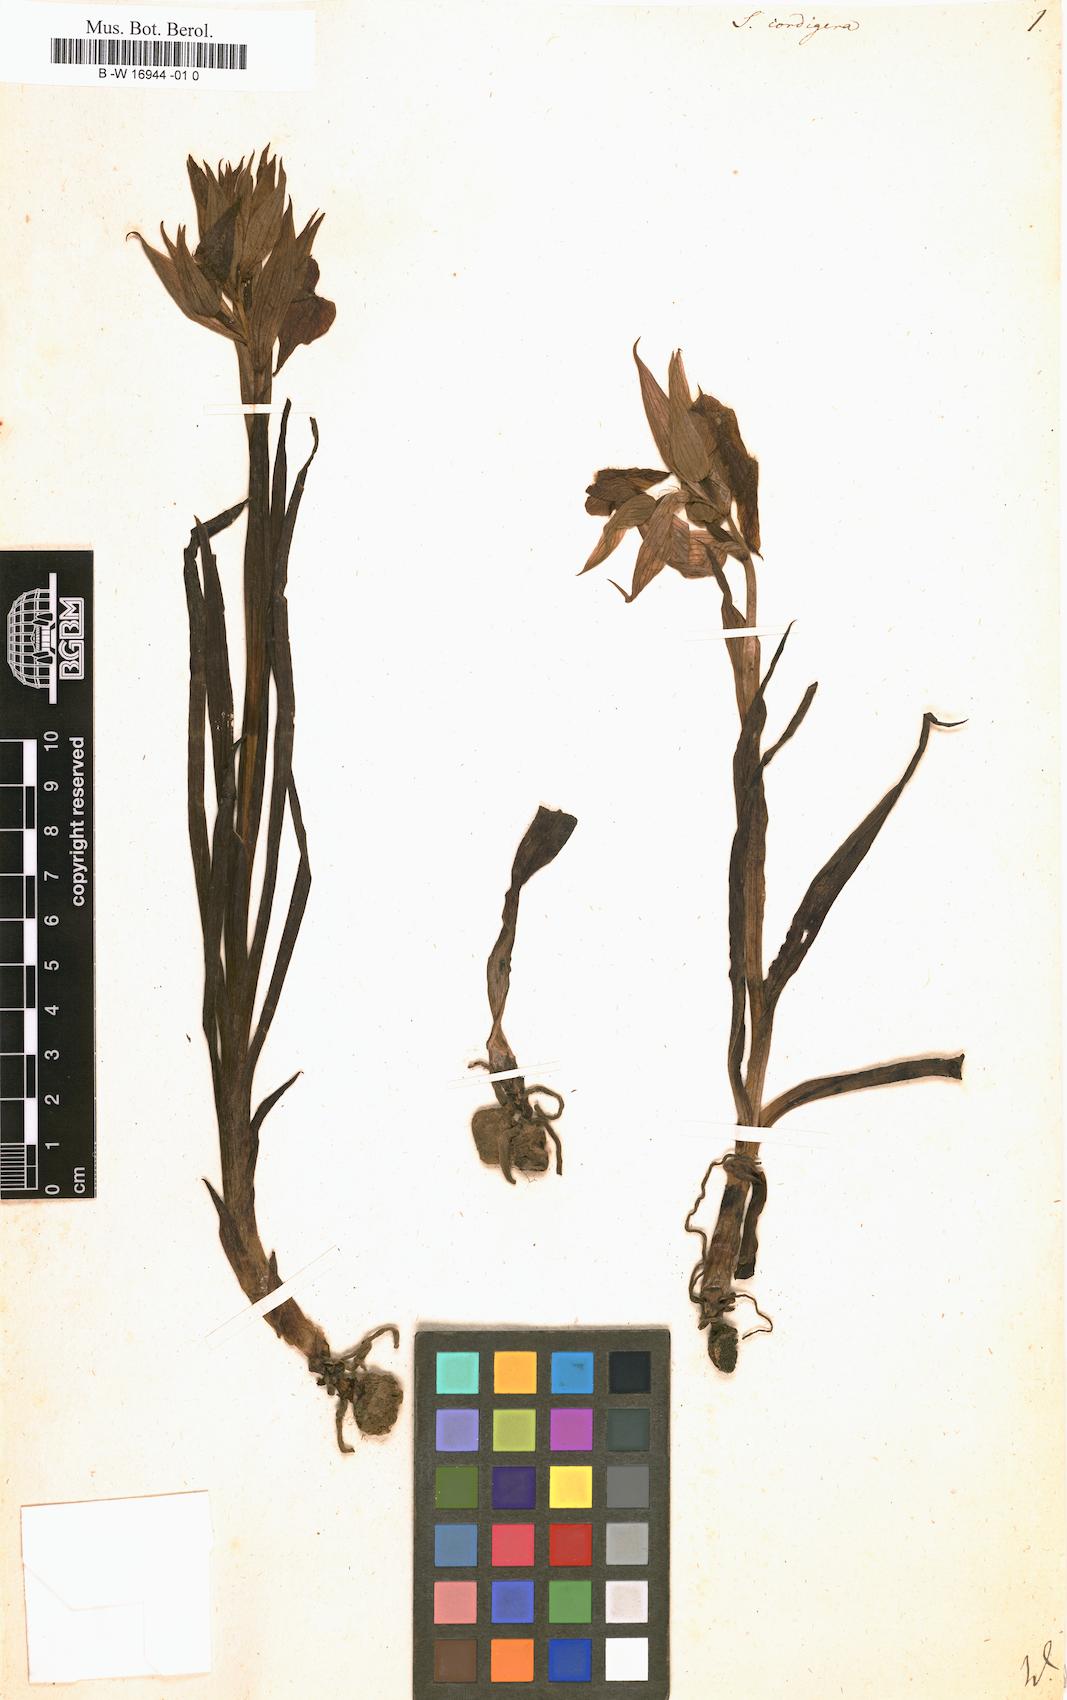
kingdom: Plantae
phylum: Tracheophyta
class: Liliopsida
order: Asparagales
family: Orchidaceae
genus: Serapias
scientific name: Serapias cordigera
